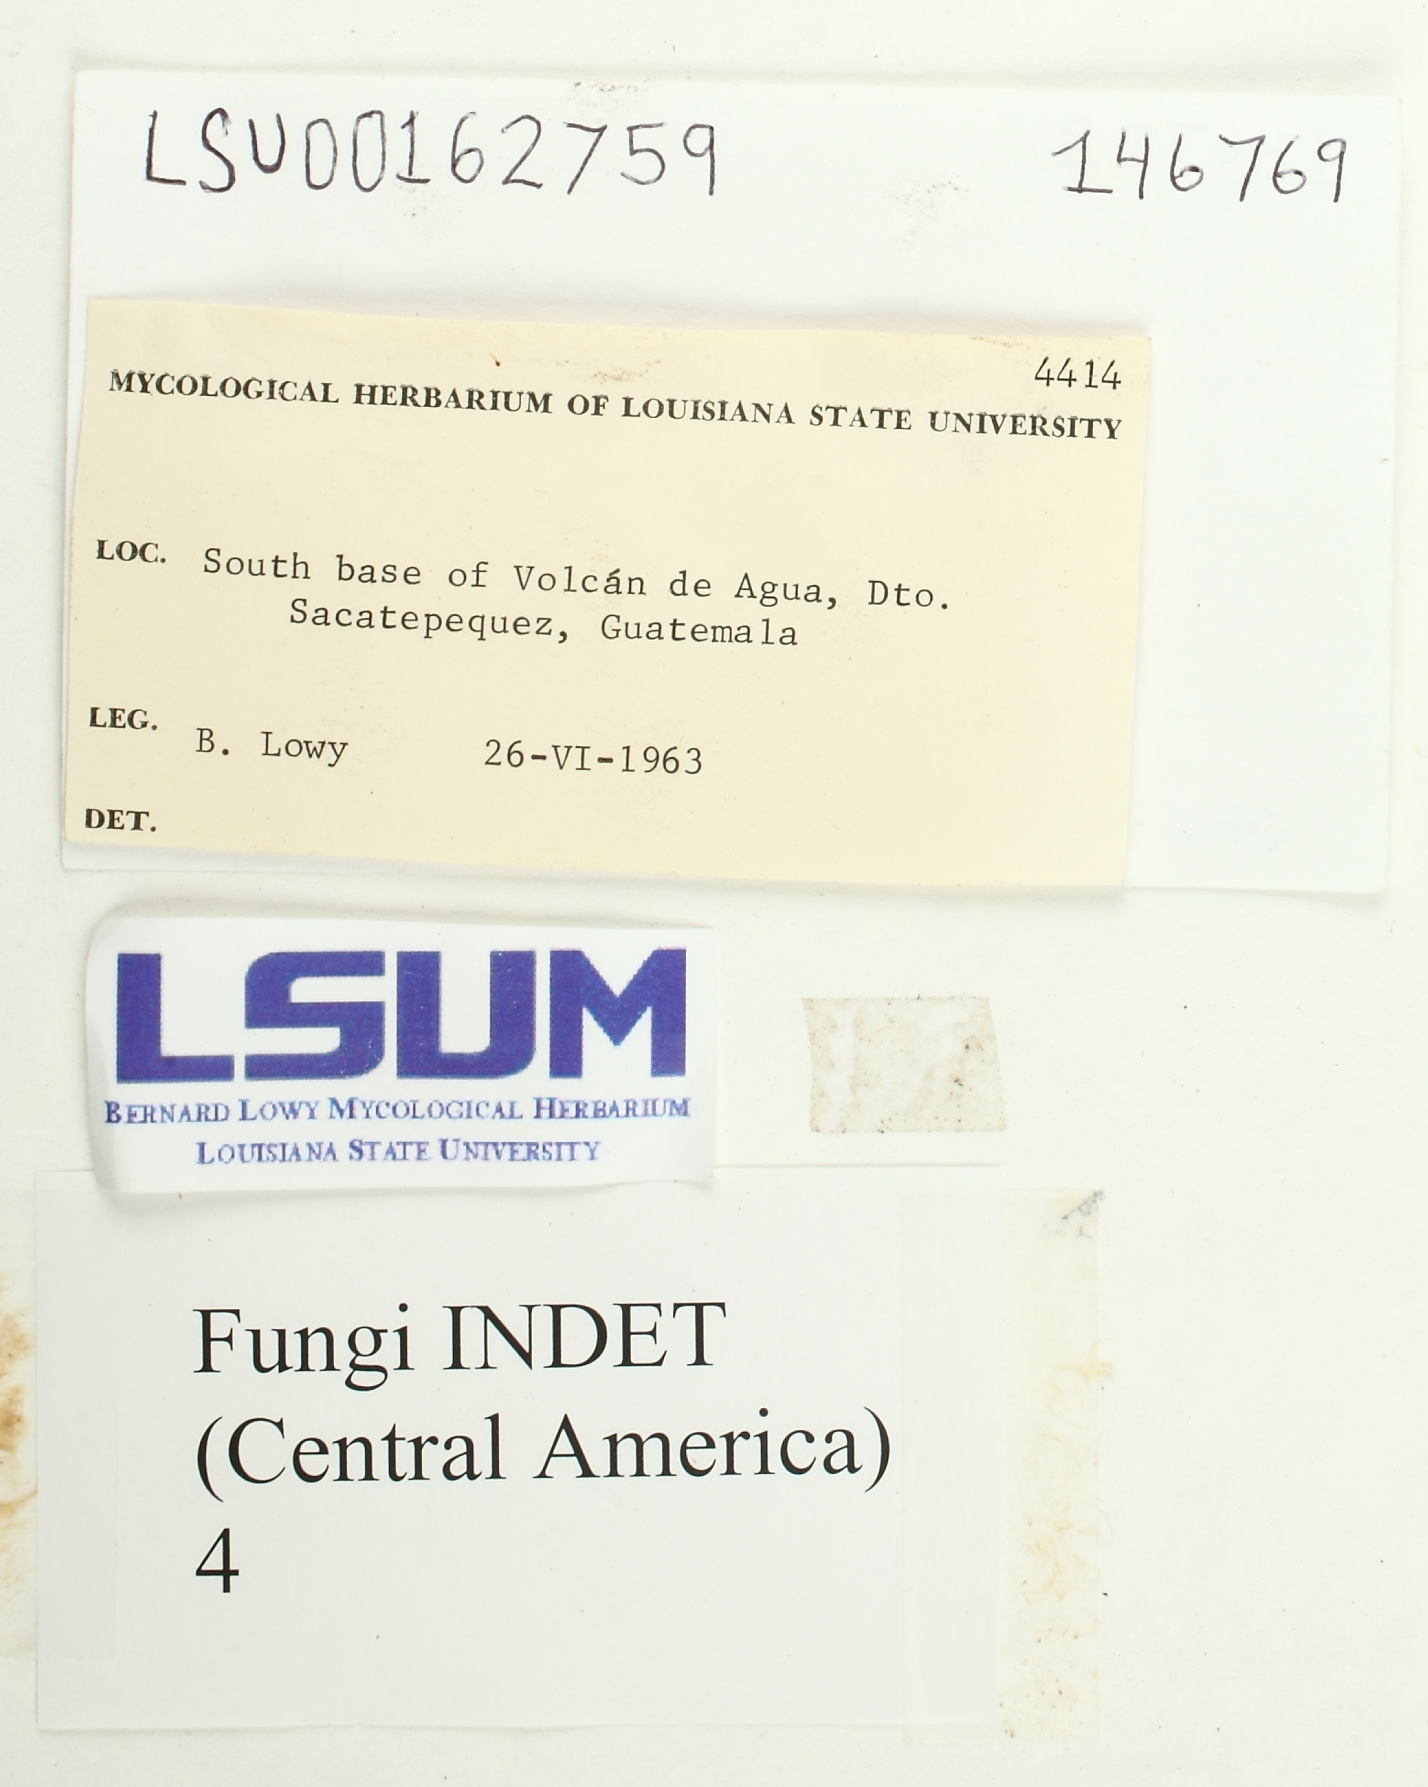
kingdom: Fungi
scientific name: Fungi
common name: Fungi
